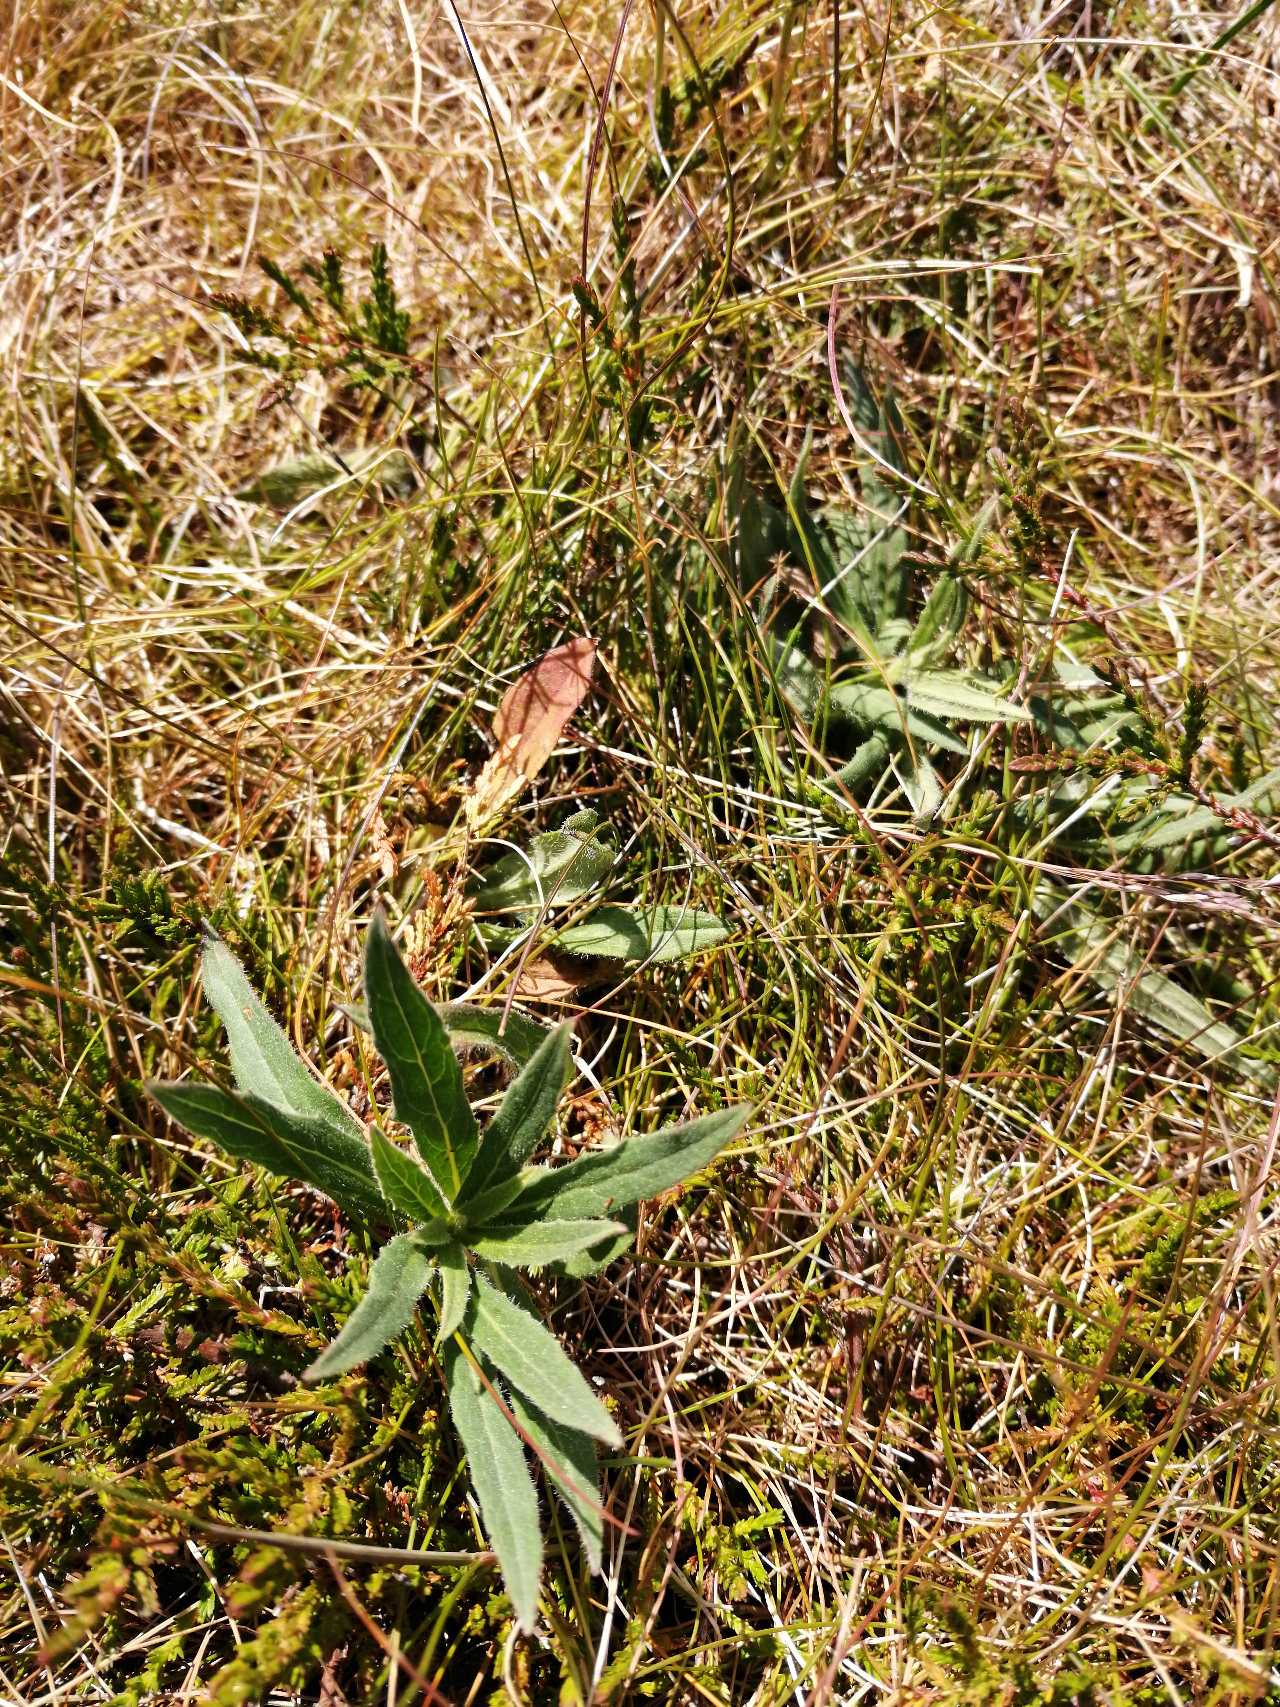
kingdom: Plantae
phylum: Tracheophyta
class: Magnoliopsida
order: Asterales
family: Asteraceae
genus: Hieracium
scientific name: Hieracium umbellatum
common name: Smalbladet høgeurt
